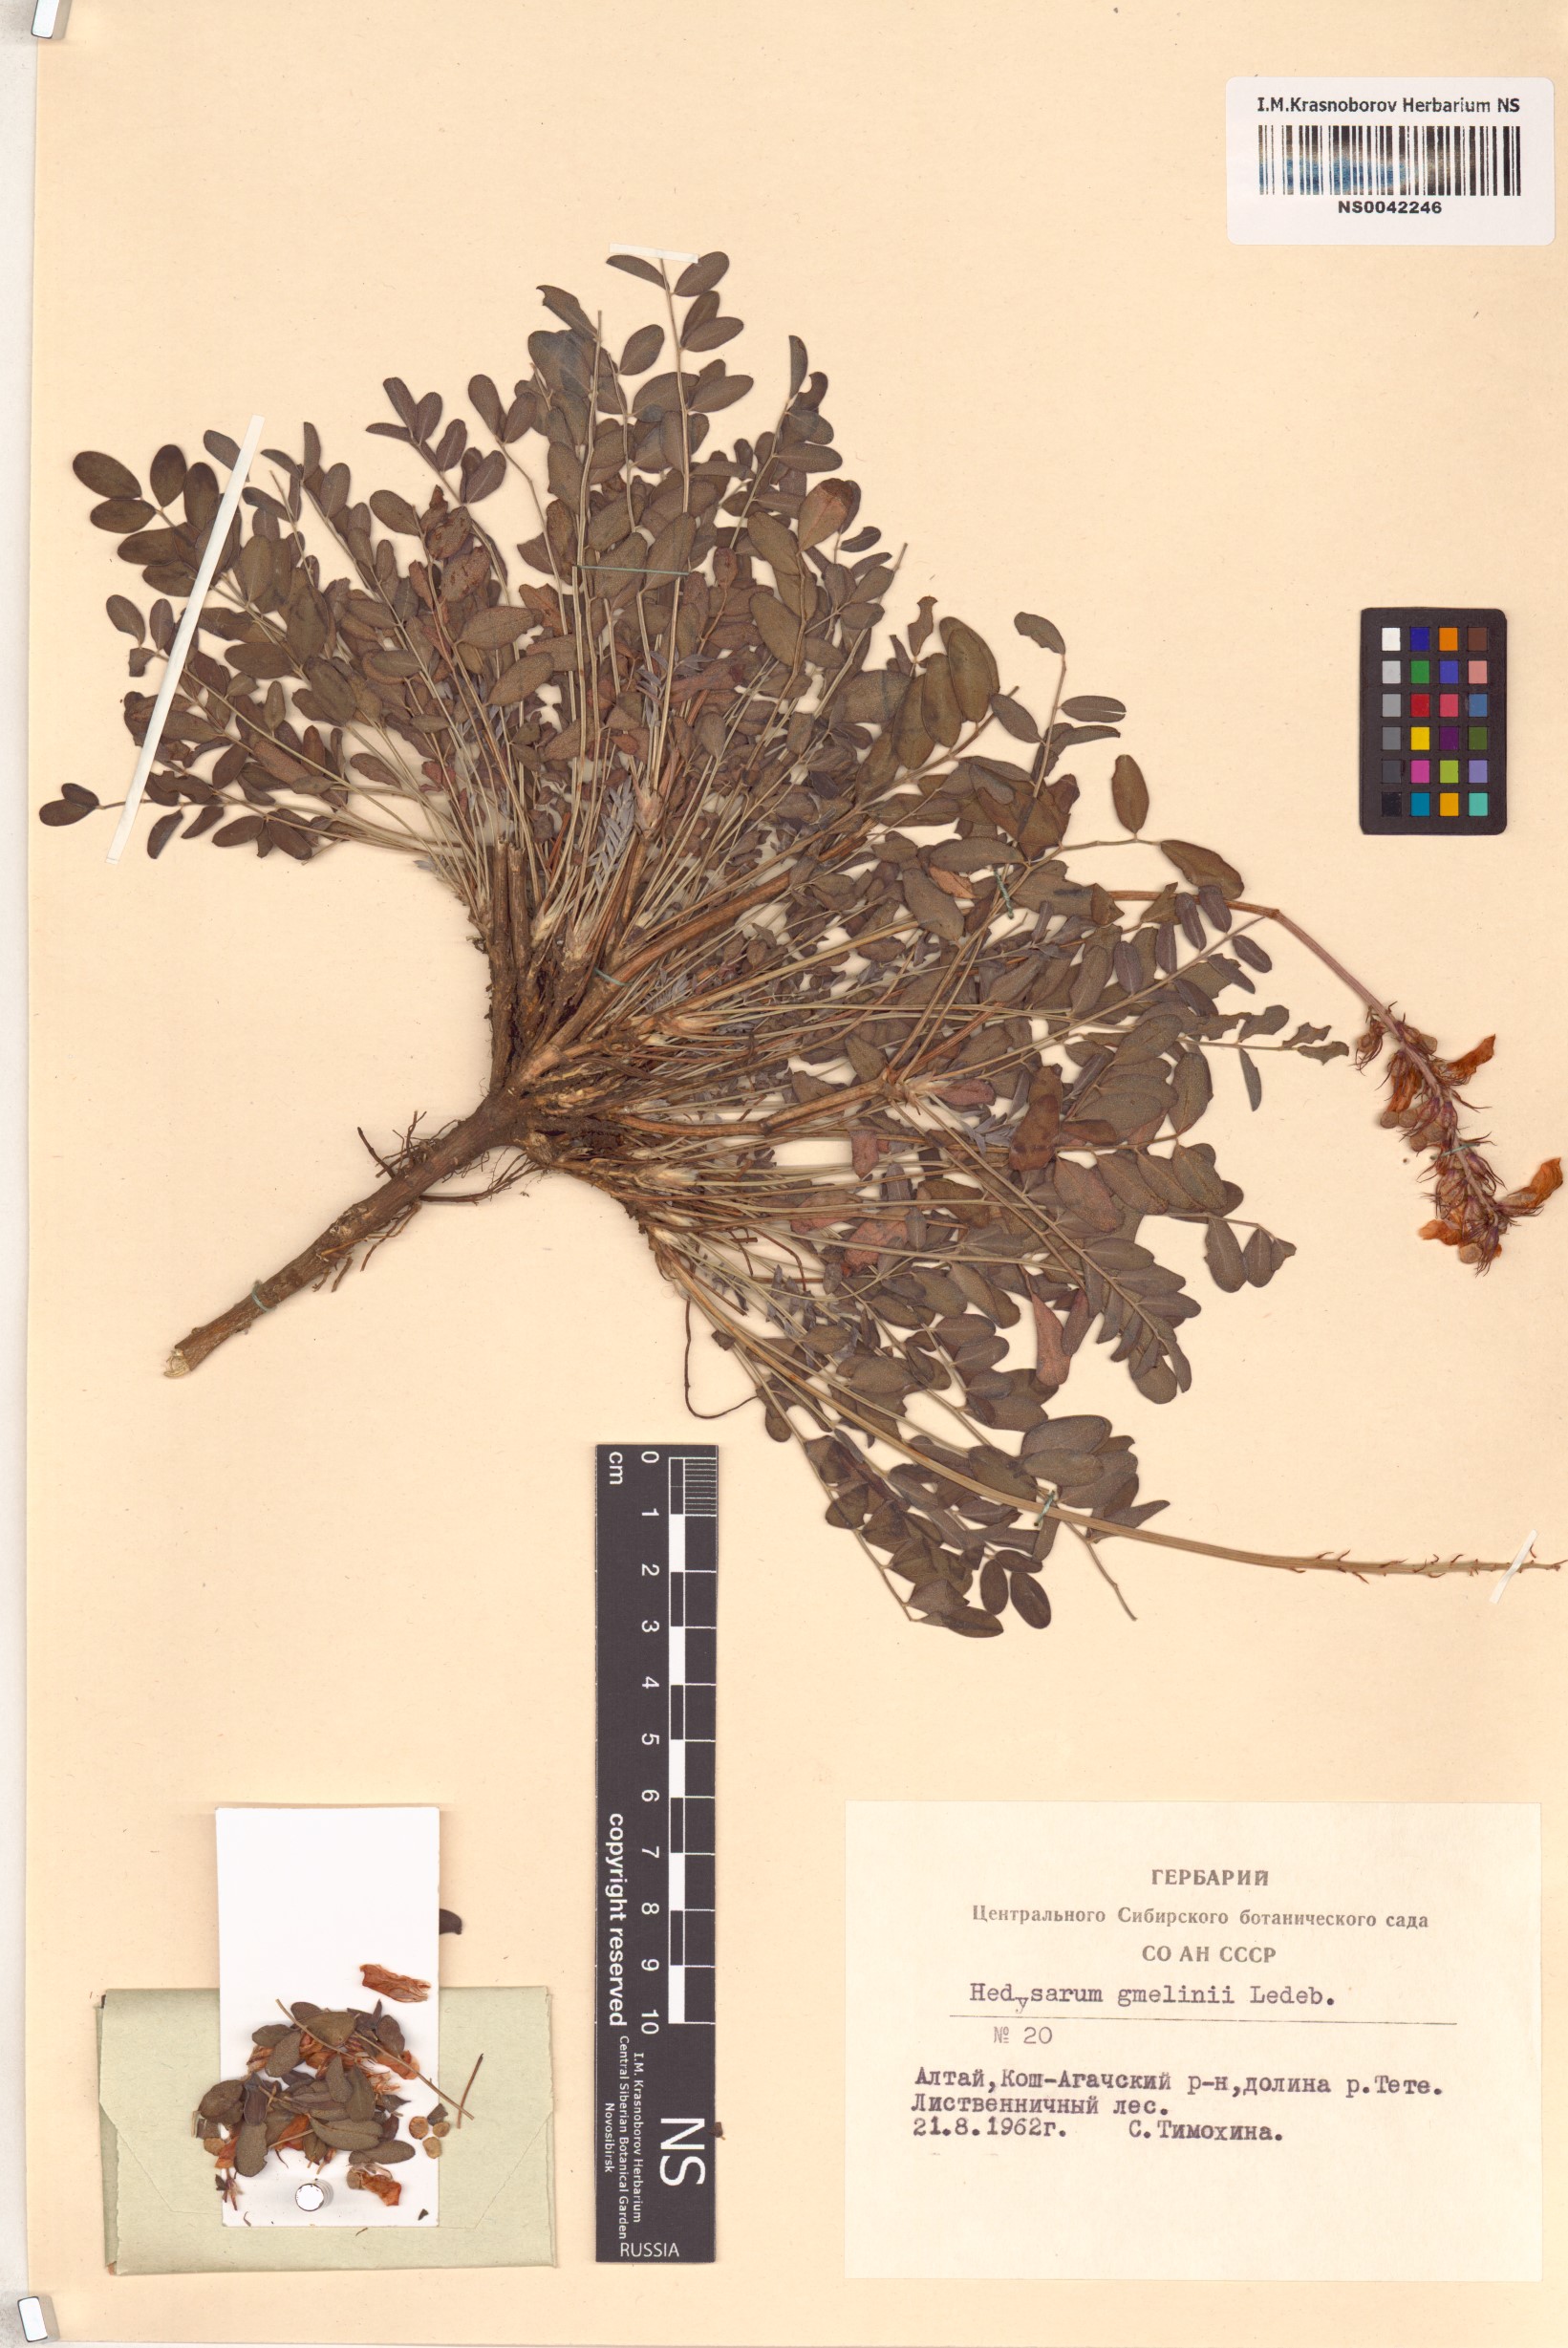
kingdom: Plantae
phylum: Tracheophyta
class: Magnoliopsida
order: Fabales
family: Fabaceae
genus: Hedysarum
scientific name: Hedysarum gmelinii
